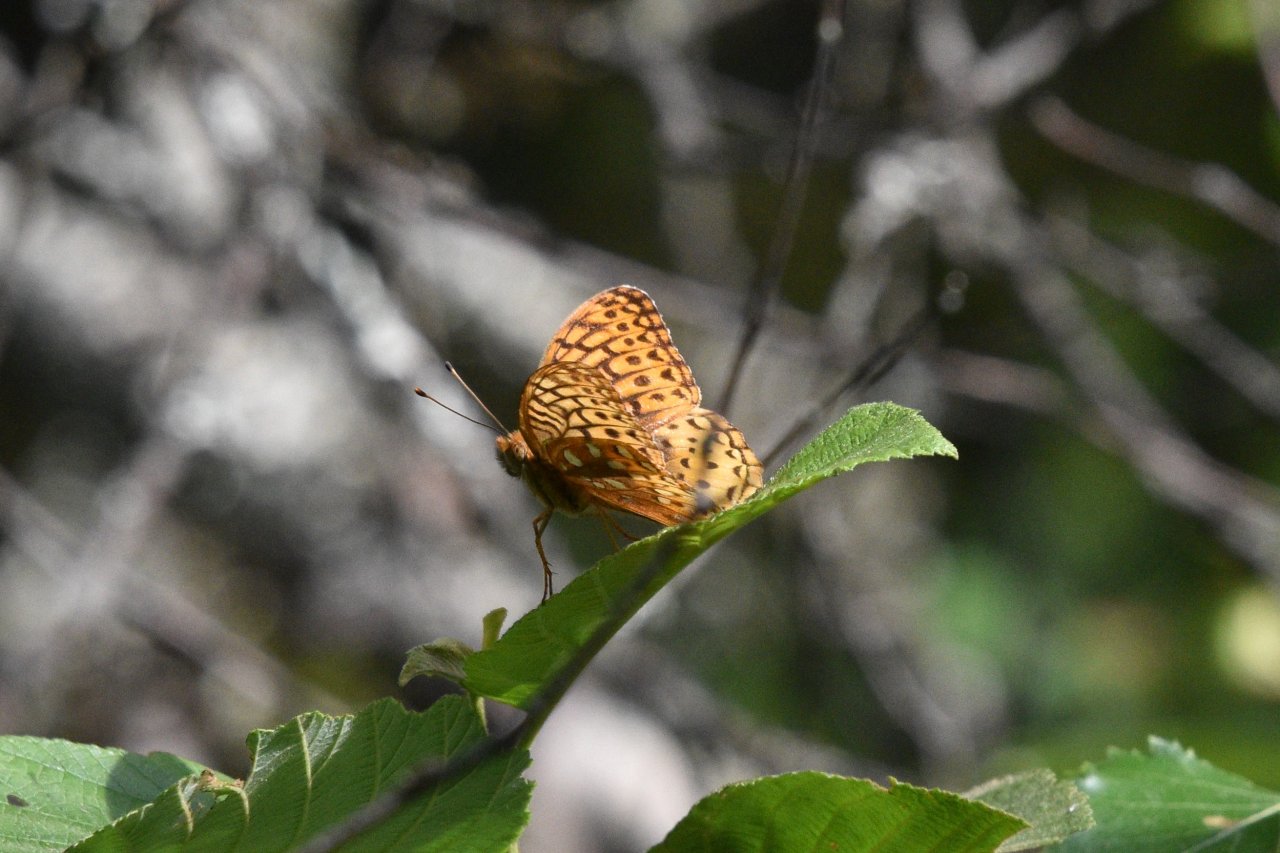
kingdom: Animalia
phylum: Arthropoda
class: Insecta
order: Lepidoptera
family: Nymphalidae
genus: Speyeria
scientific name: Speyeria cybele
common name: Great Spangled Fritillary
